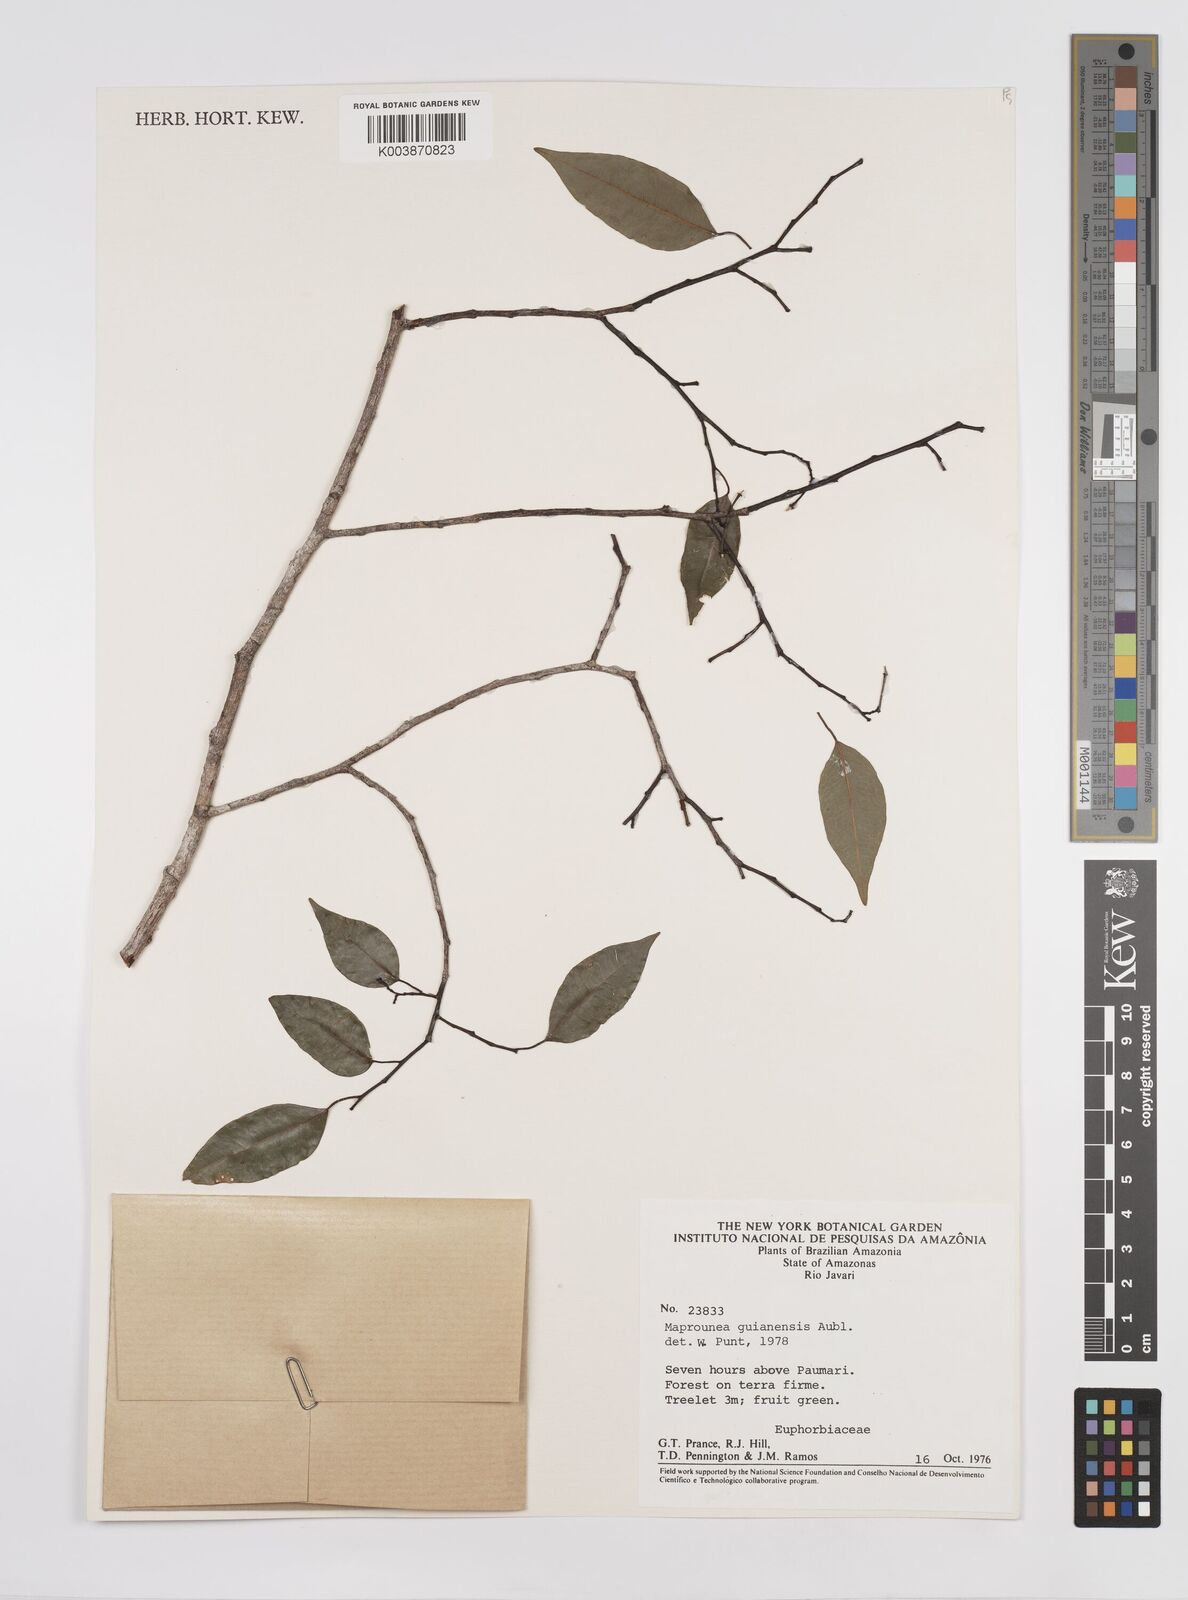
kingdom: Plantae
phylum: Tracheophyta
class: Magnoliopsida
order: Malpighiales
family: Euphorbiaceae
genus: Maprounea
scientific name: Maprounea guianensis
